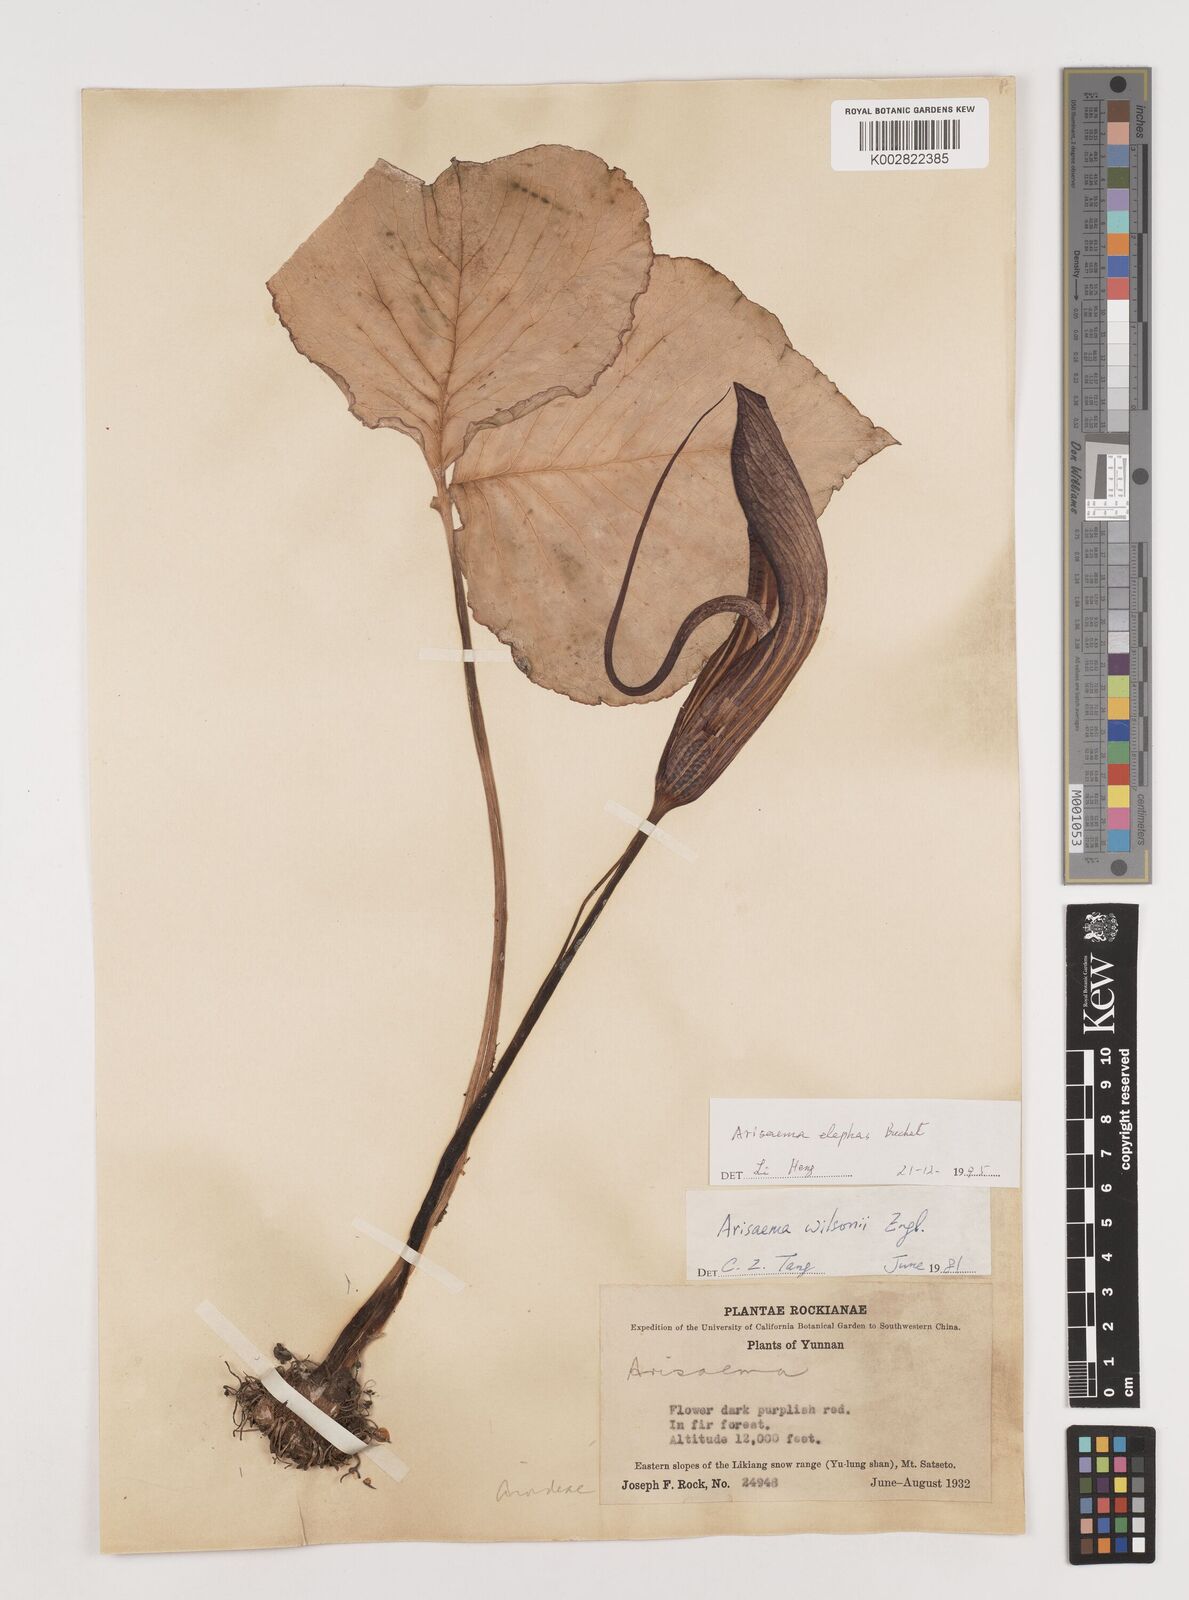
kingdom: Plantae
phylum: Tracheophyta
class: Liliopsida
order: Alismatales
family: Araceae
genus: Arisaema
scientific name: Arisaema elephas
